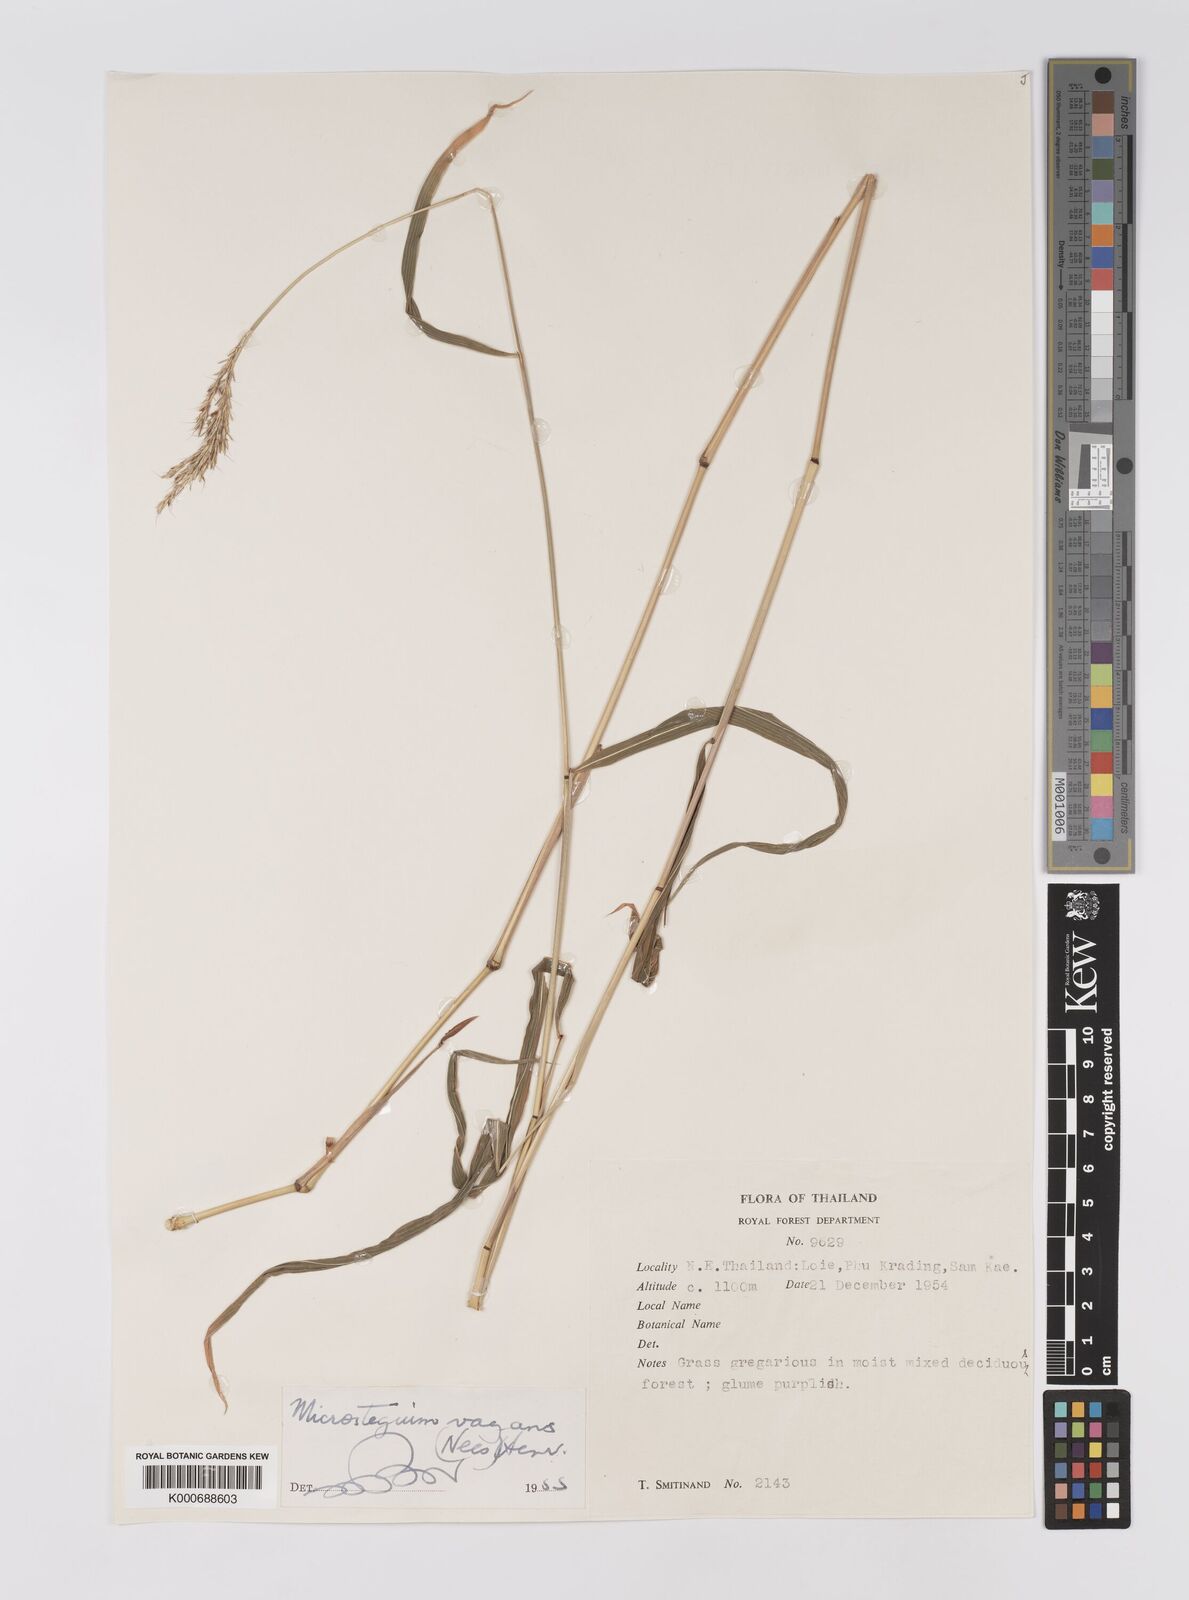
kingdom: Plantae
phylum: Tracheophyta
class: Liliopsida
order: Poales
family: Poaceae
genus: Microstegium
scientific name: Microstegium fasciculatum
